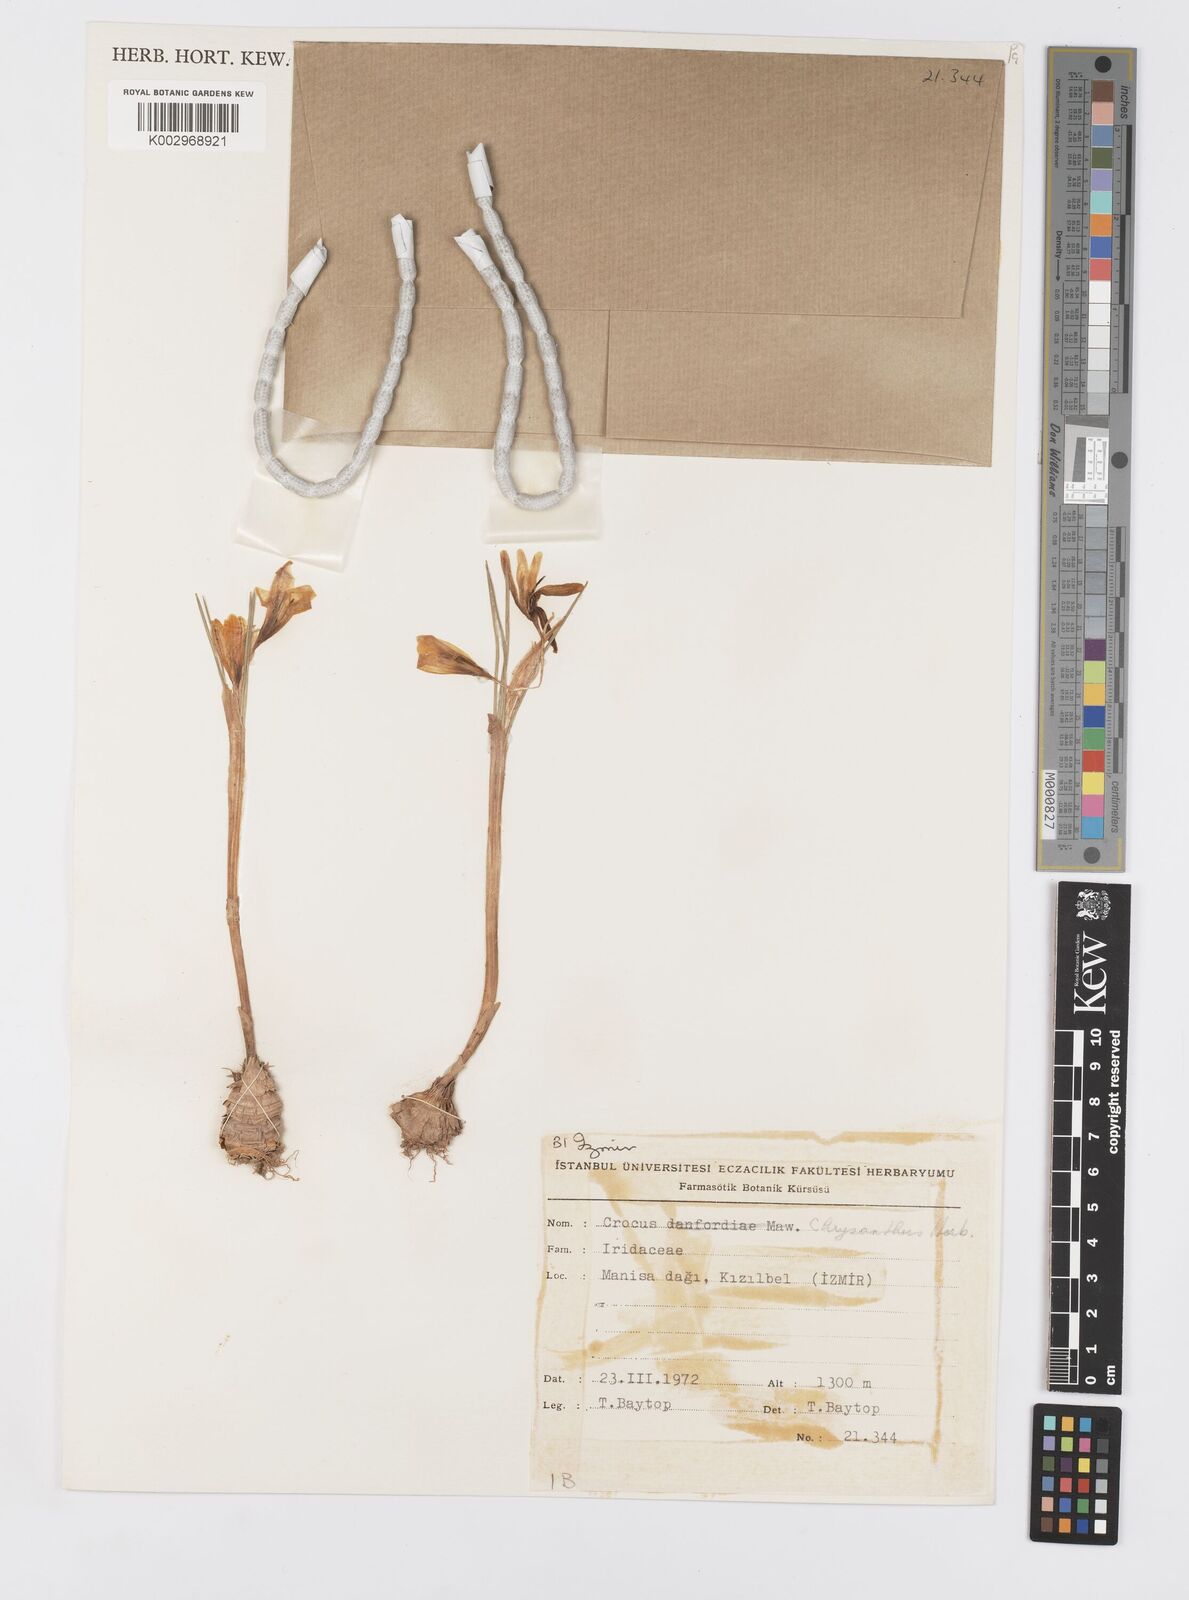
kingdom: Plantae
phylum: Tracheophyta
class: Liliopsida
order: Asparagales
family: Iridaceae
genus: Crocus
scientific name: Crocus
